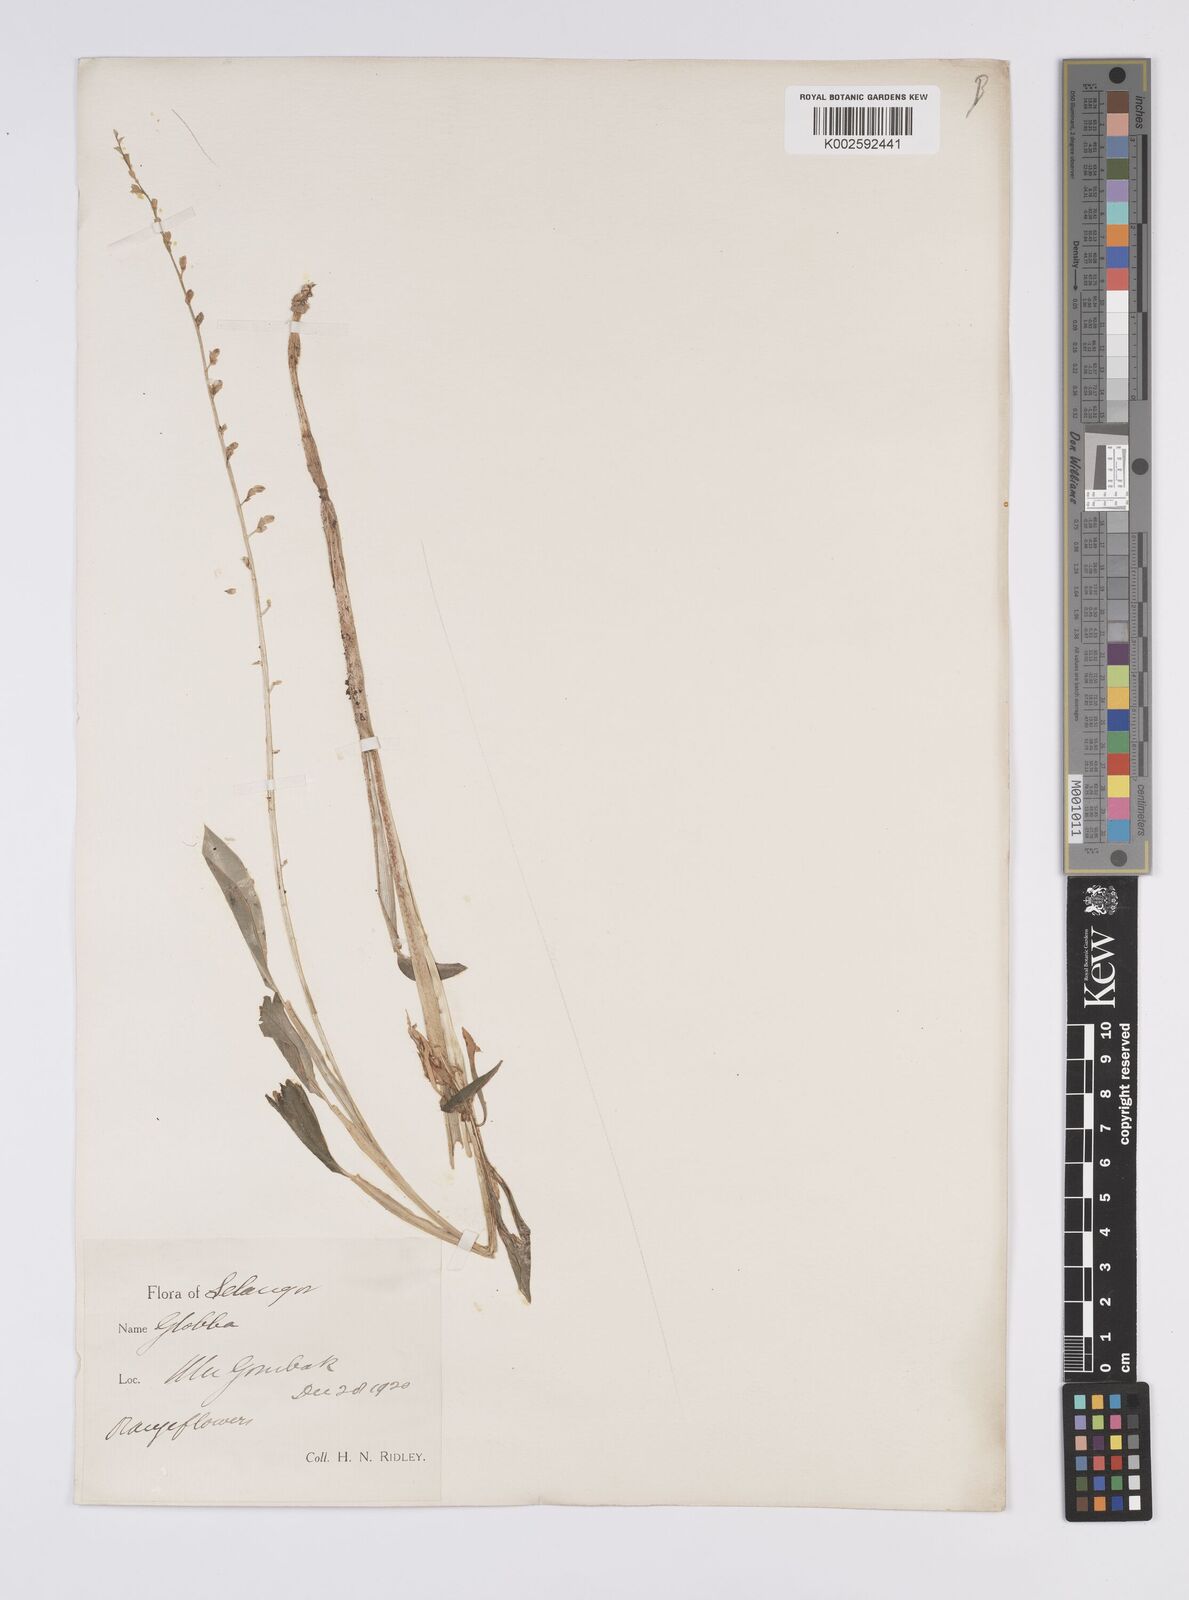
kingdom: Plantae
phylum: Tracheophyta
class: Liliopsida
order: Zingiberales
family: Zingiberaceae
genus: Globba
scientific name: Globba pendula
